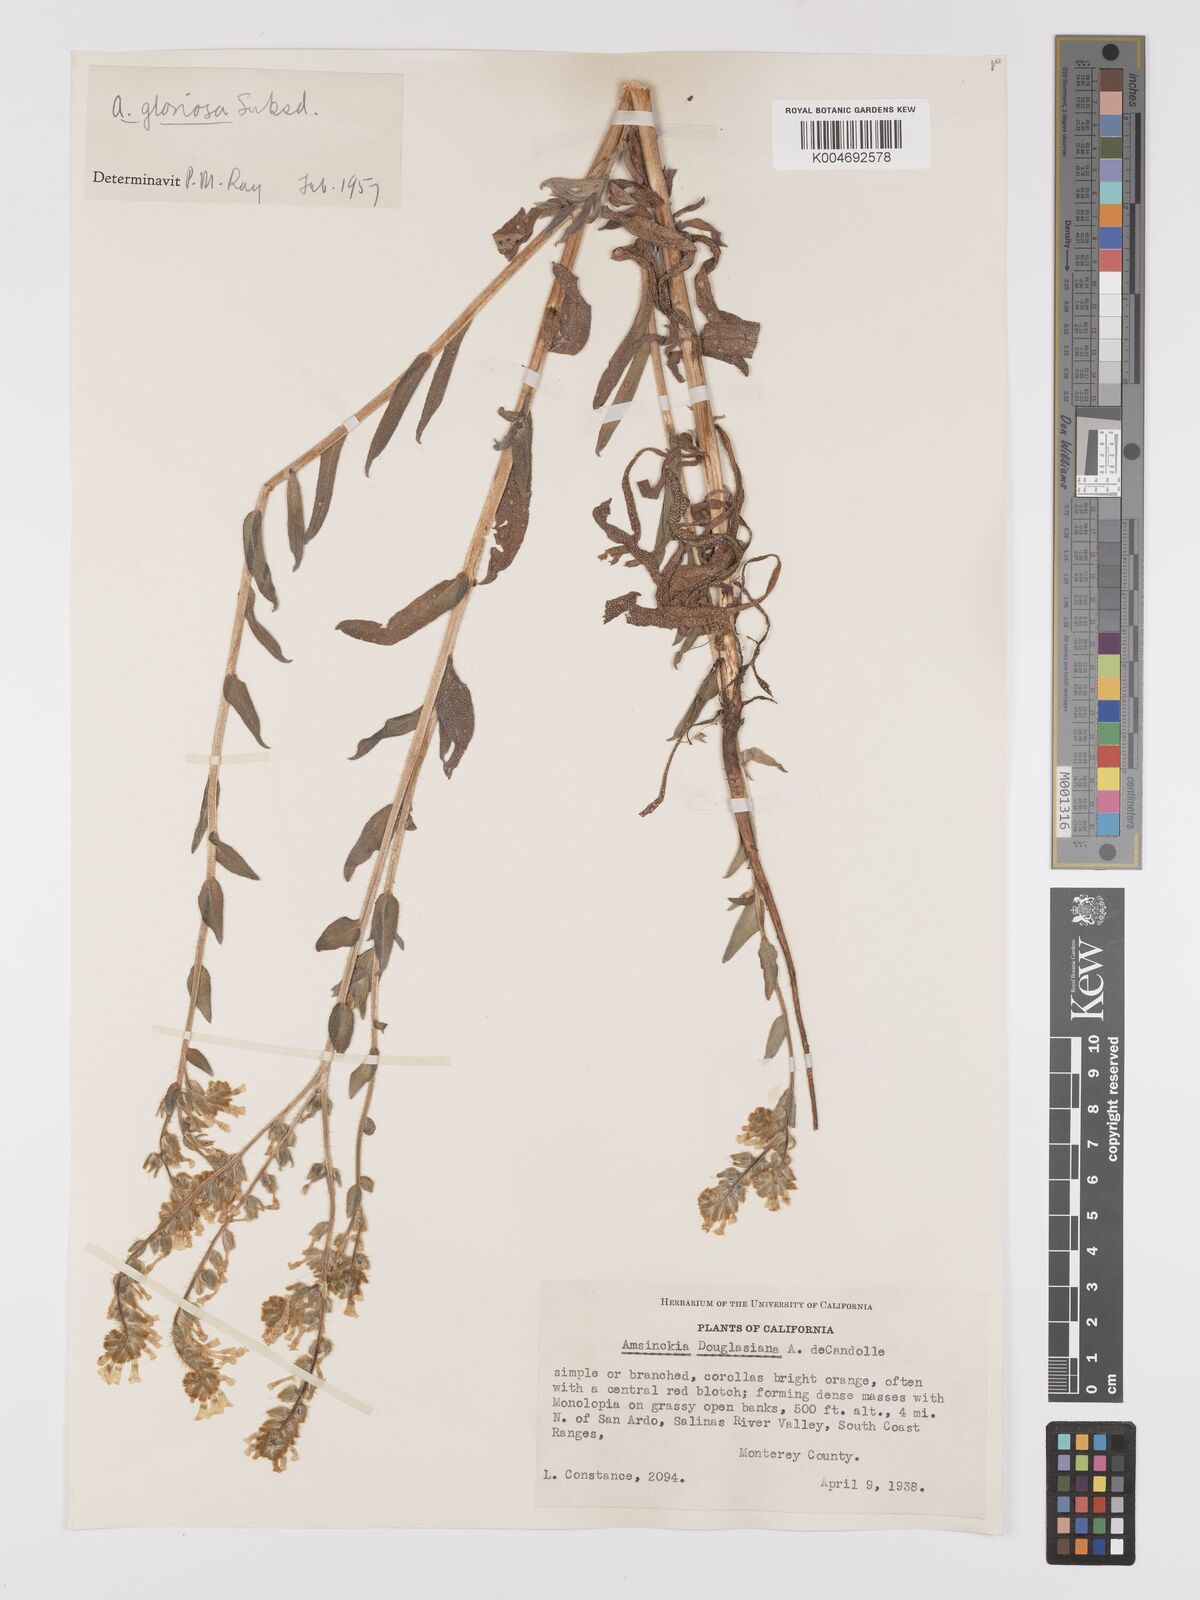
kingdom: Plantae
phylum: Tracheophyta
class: Magnoliopsida
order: Boraginales
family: Boraginaceae
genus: Amsinckia
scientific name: Amsinckia tessellata
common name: Tessellate fiddleneck
